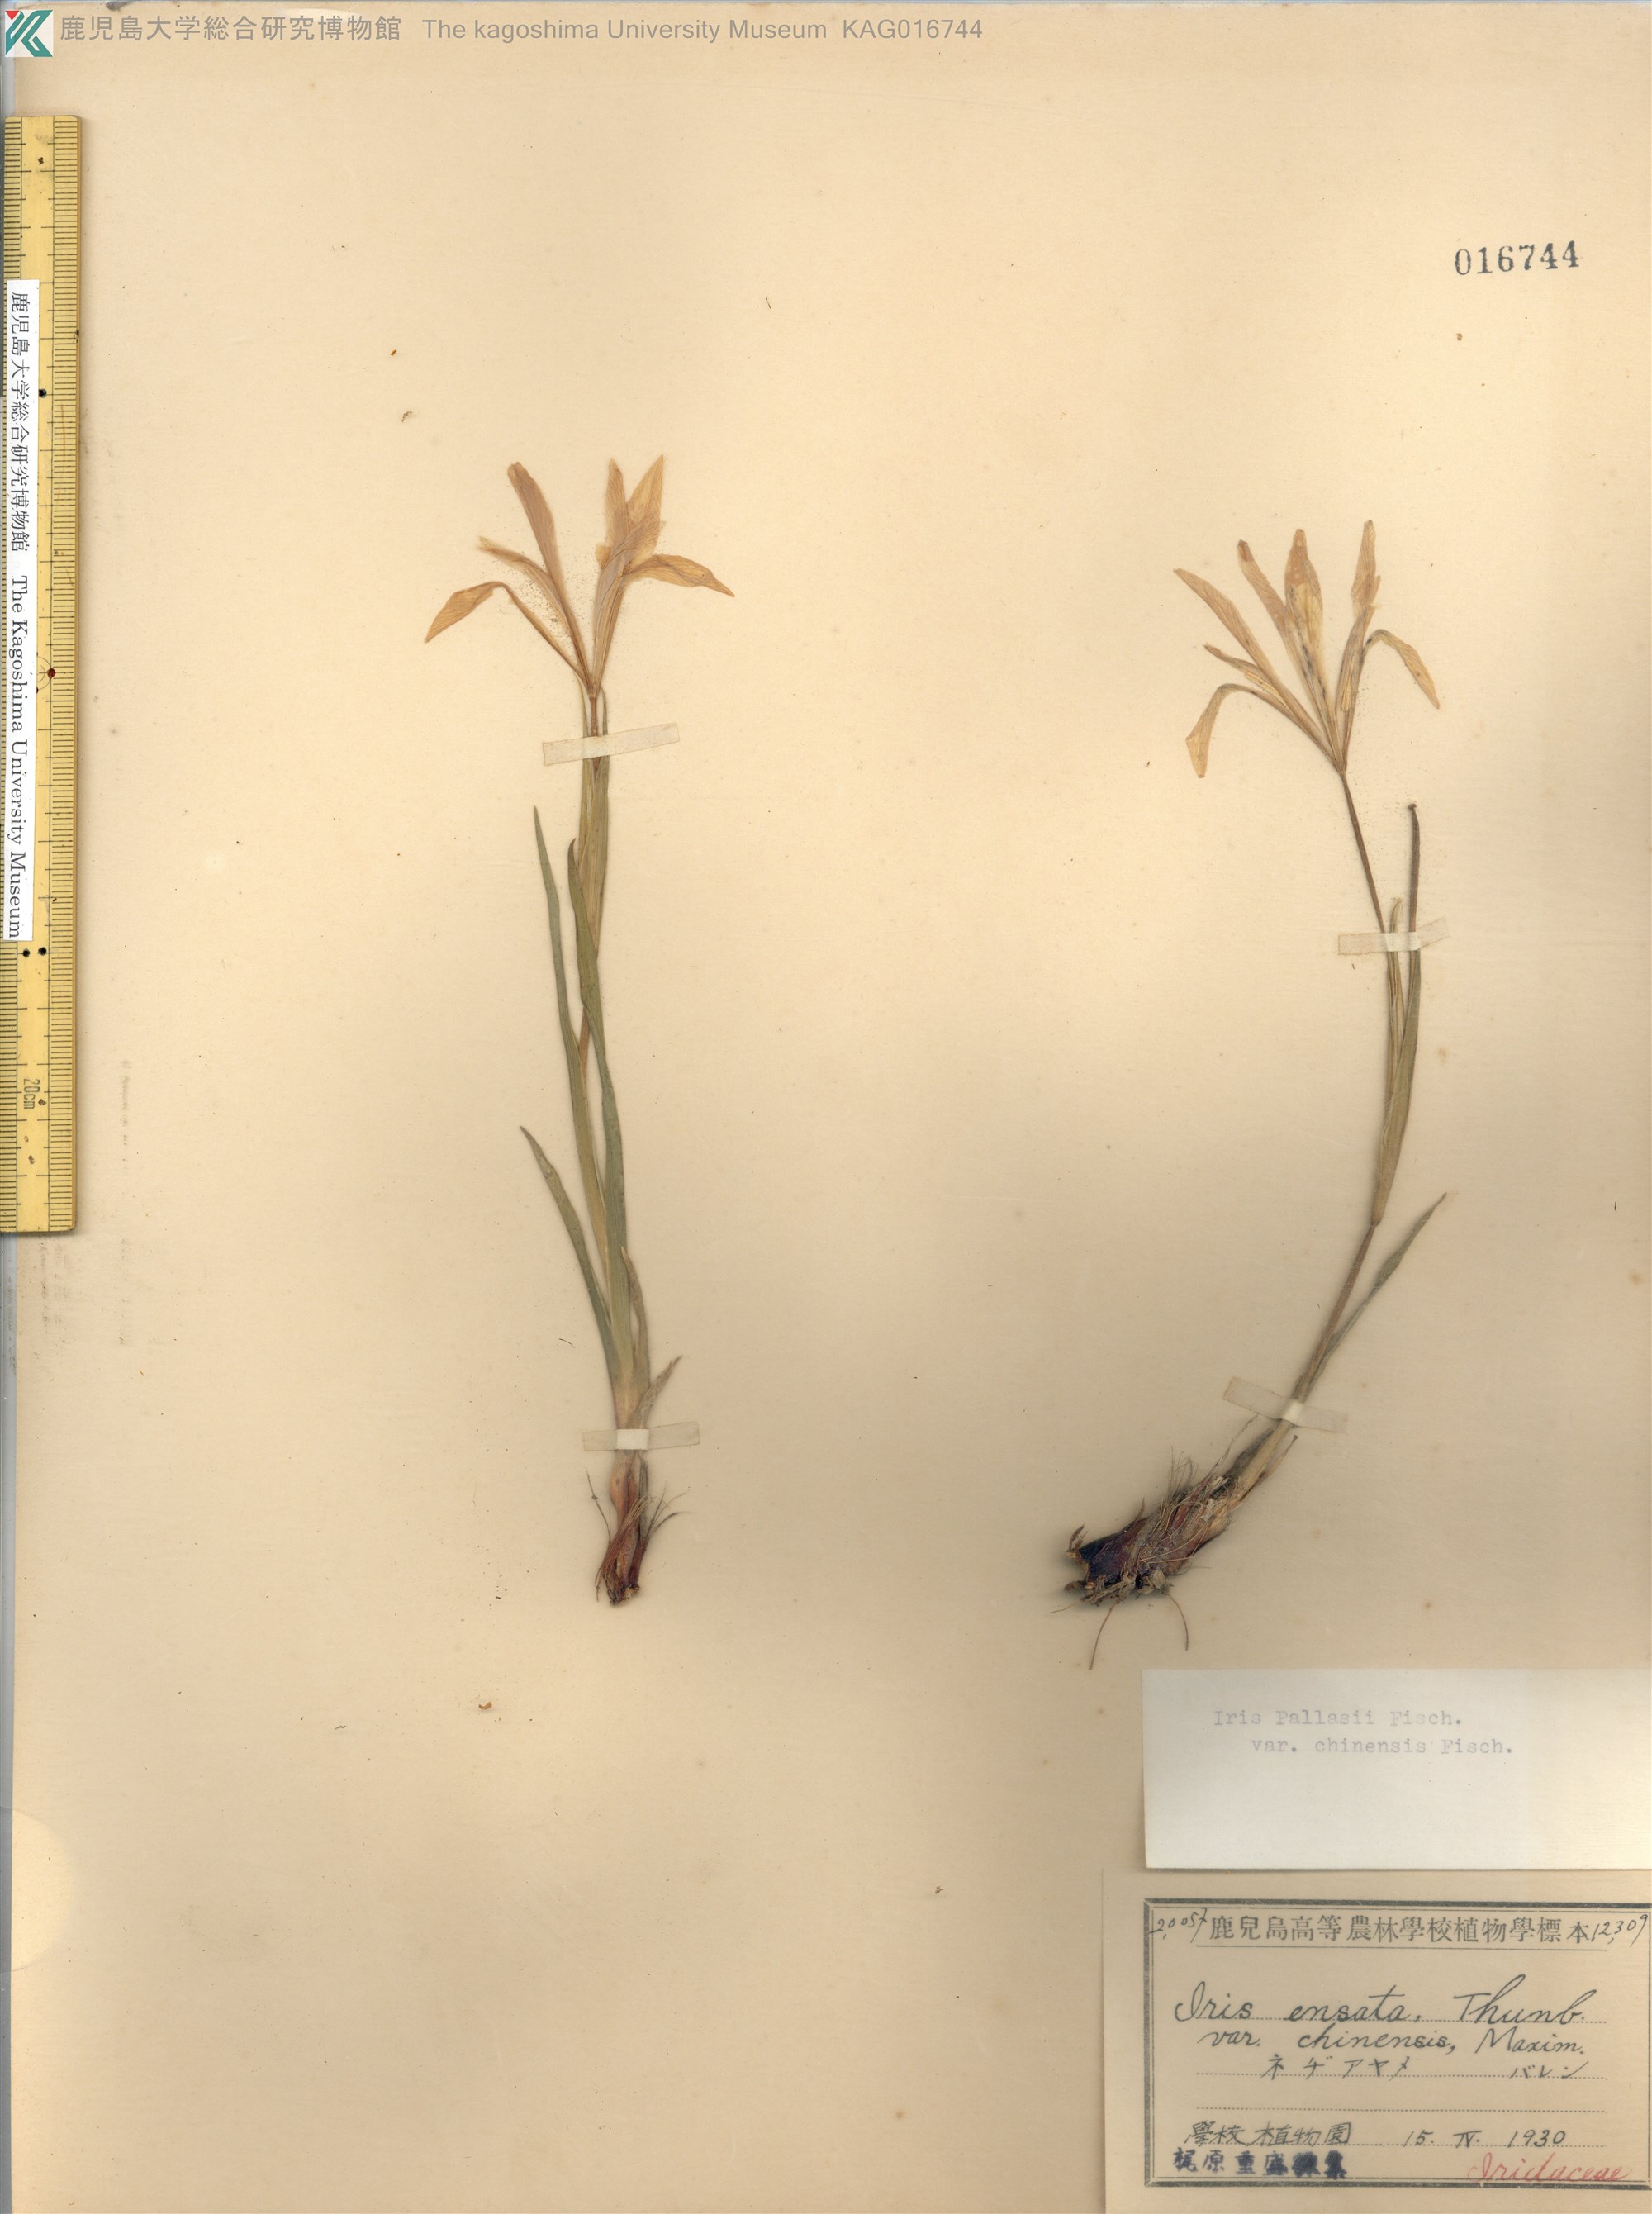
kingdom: Plantae
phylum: Tracheophyta
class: Liliopsida
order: Asparagales
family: Iridaceae
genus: Iris
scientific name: Iris pallasii
